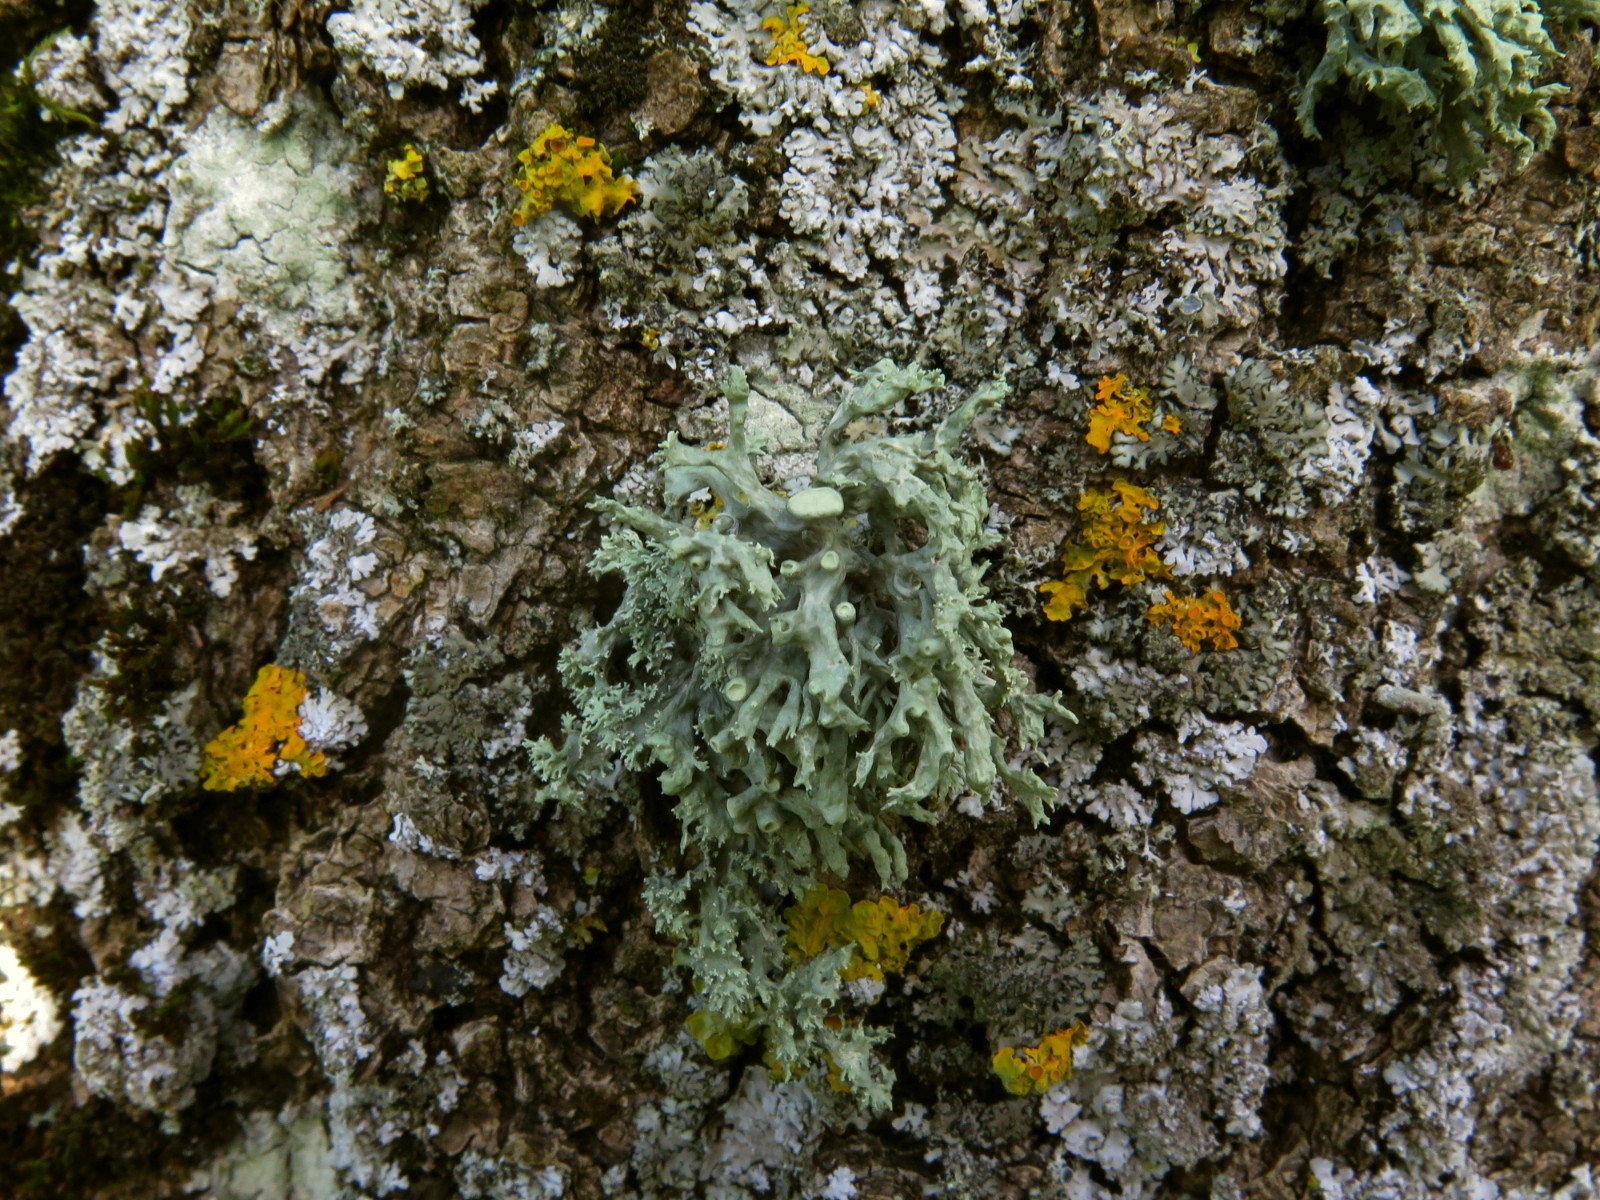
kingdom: Fungi
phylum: Ascomycota
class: Lecanoromycetes
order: Lecanorales
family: Ramalinaceae
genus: Ramalina
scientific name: Ramalina fastigiata
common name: tue-grenlav
